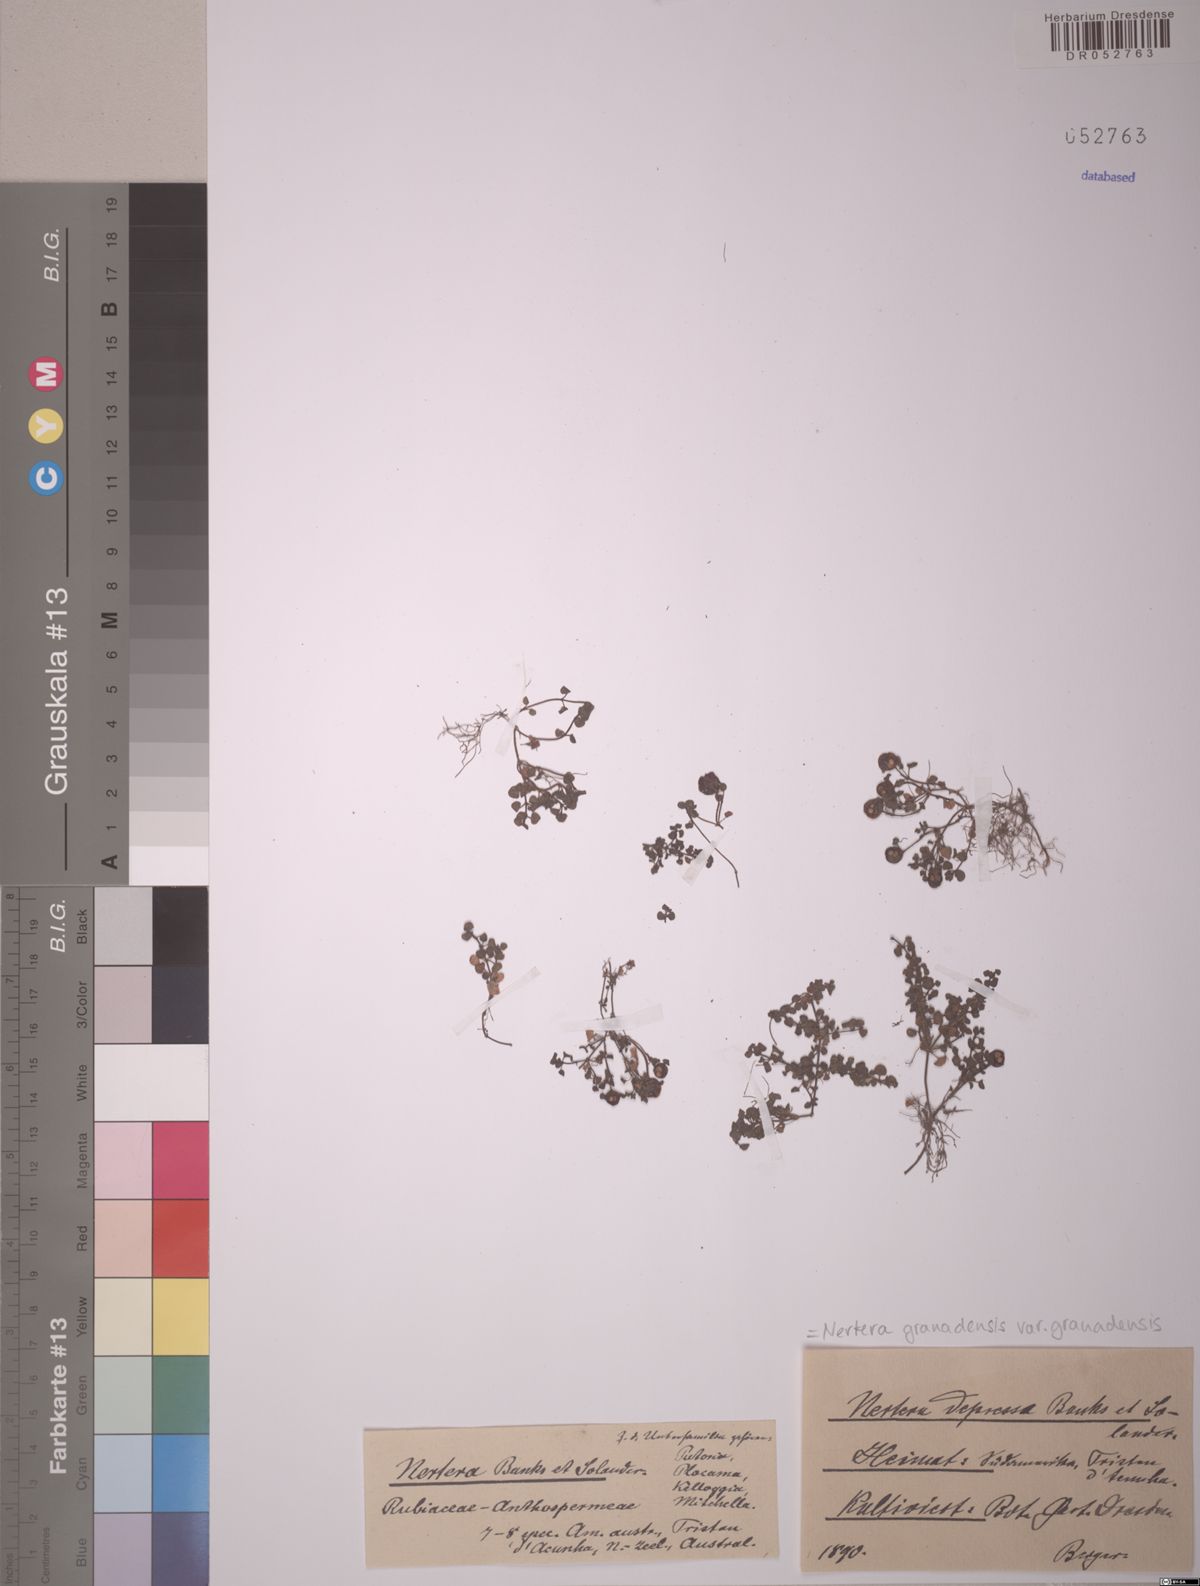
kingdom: Plantae
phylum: Tracheophyta
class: Magnoliopsida
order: Gentianales
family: Rubiaceae
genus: Nertera
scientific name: Nertera granadensis
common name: Beadplant
